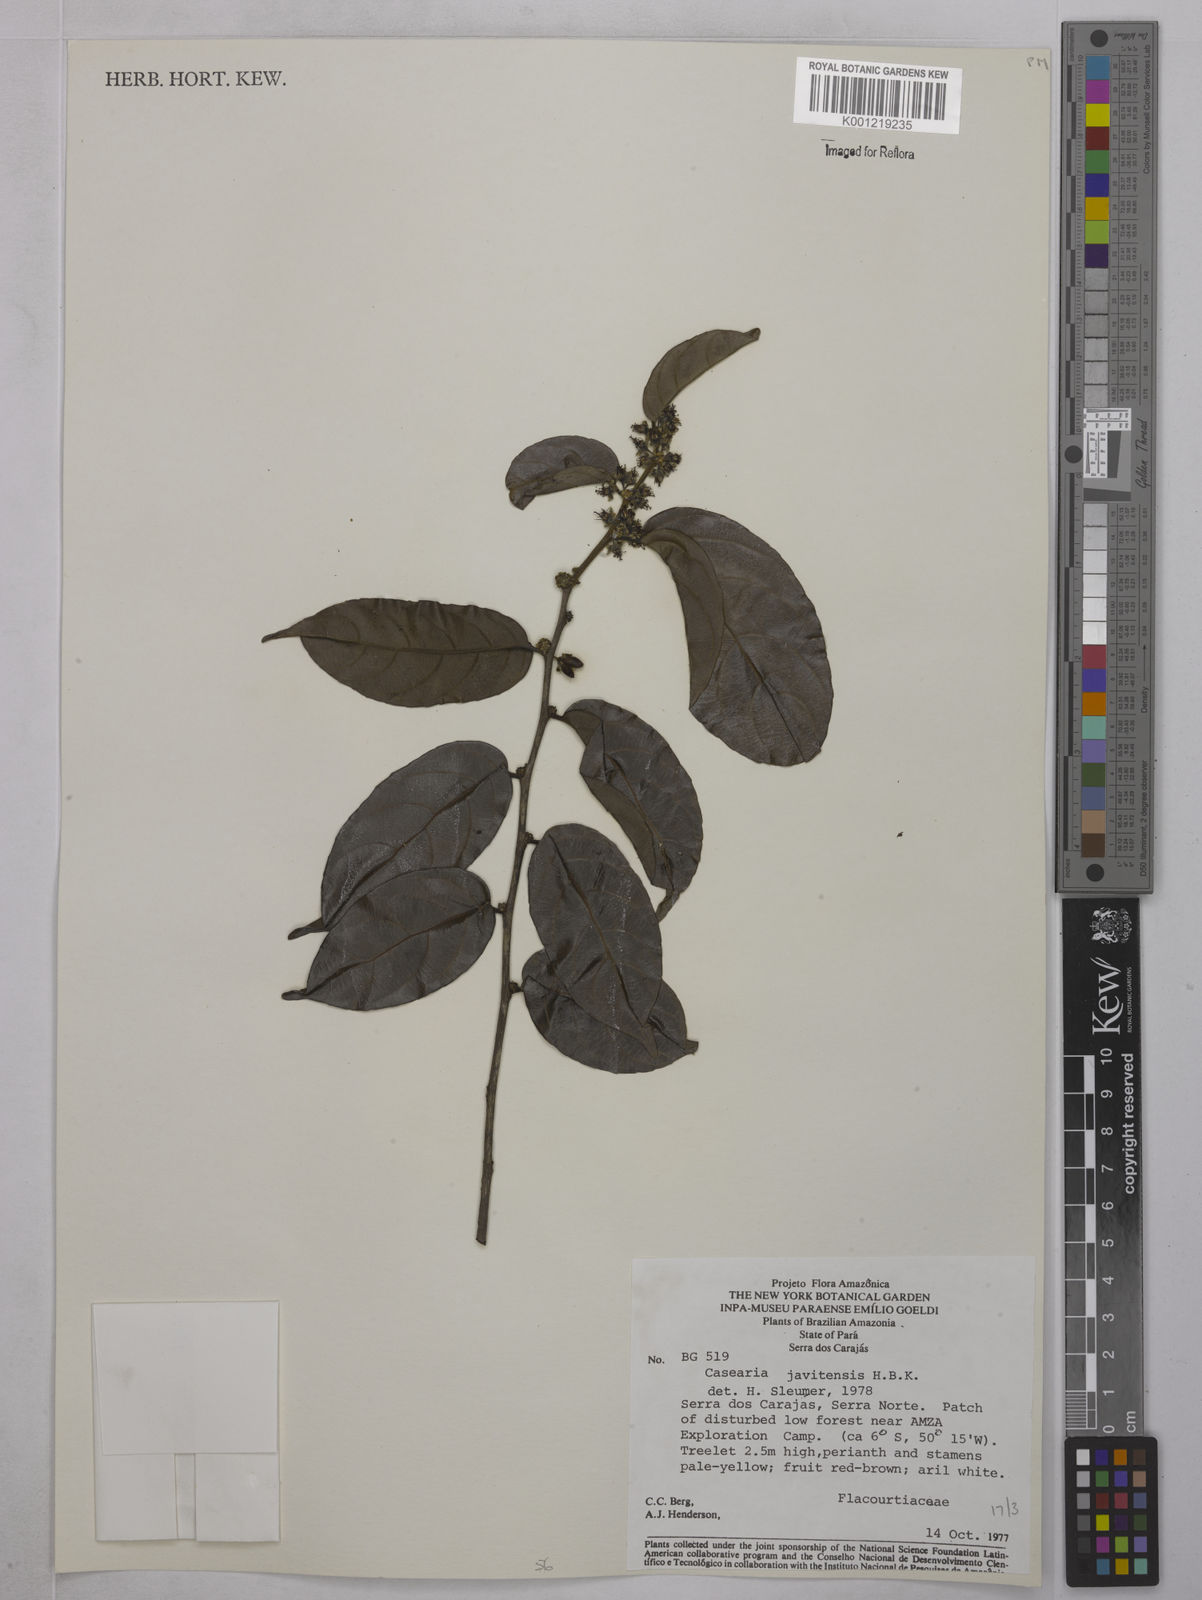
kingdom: Plantae
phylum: Tracheophyta
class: Magnoliopsida
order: Malpighiales
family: Salicaceae
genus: Piparea
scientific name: Piparea multiflora
